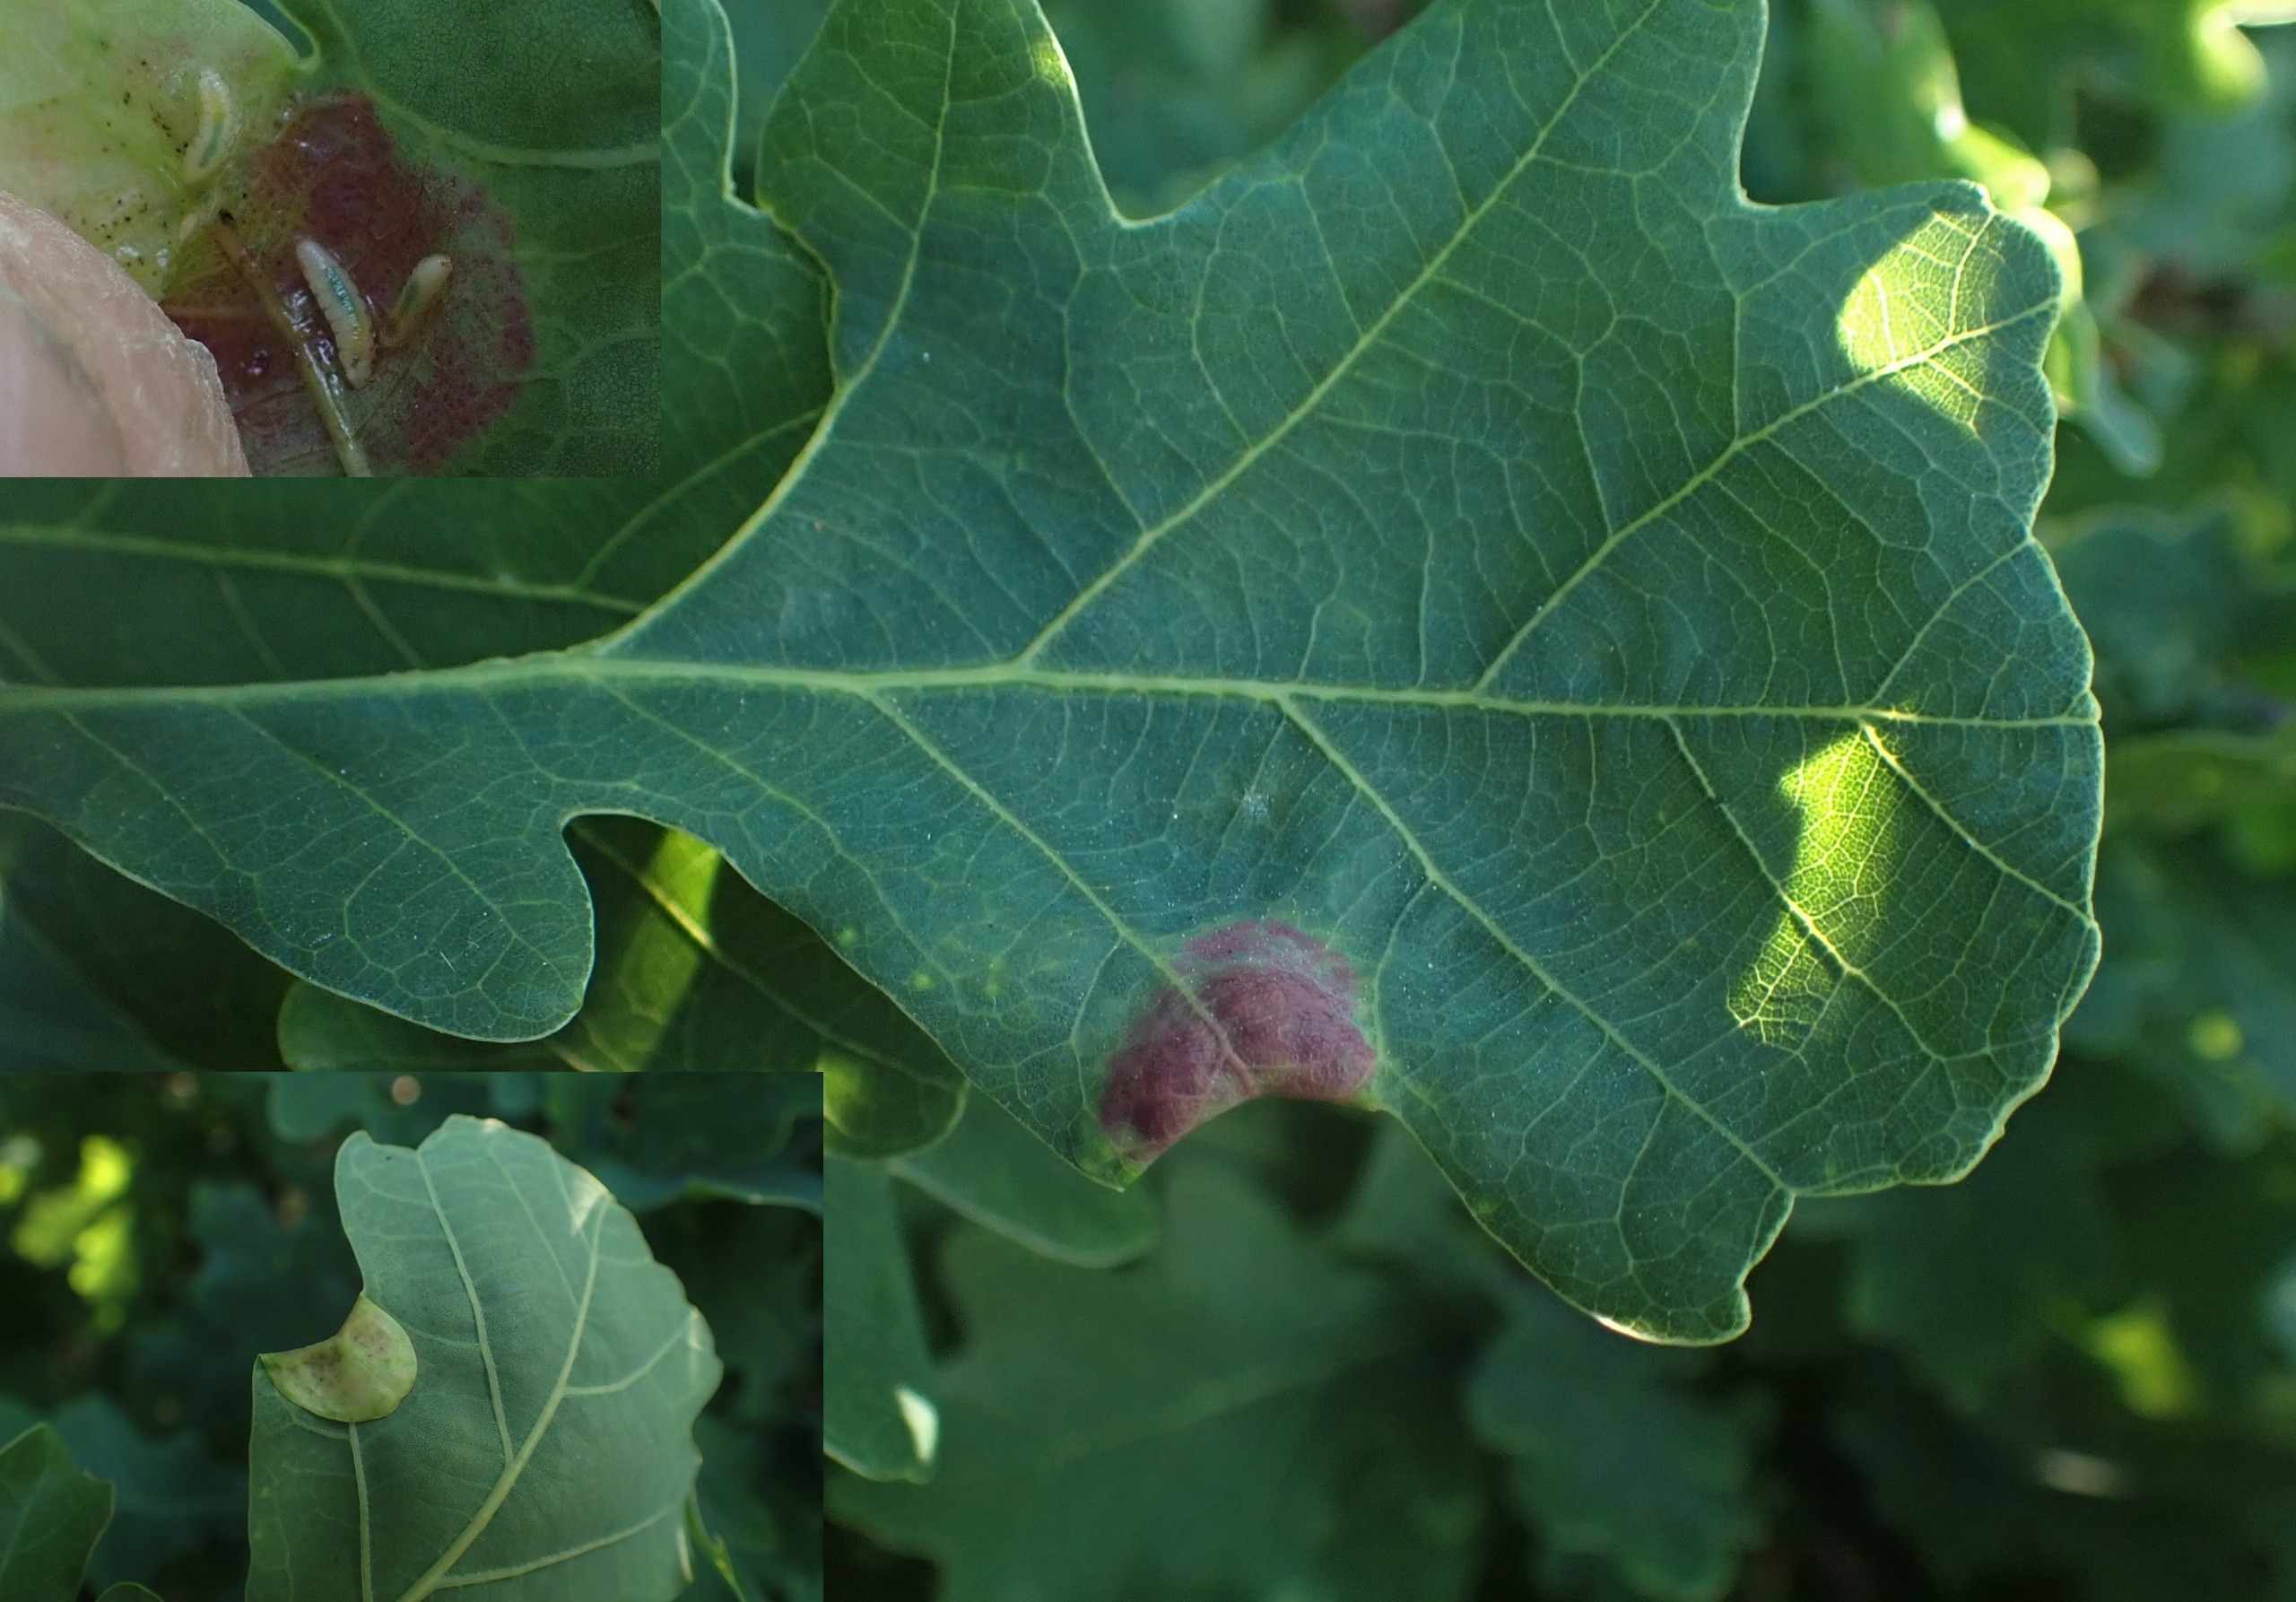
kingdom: Animalia
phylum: Arthropoda
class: Insecta
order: Diptera
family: Cecidomyiidae
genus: Macrodiplosis
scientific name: Macrodiplosis pustularis
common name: Marmorgalmyg
